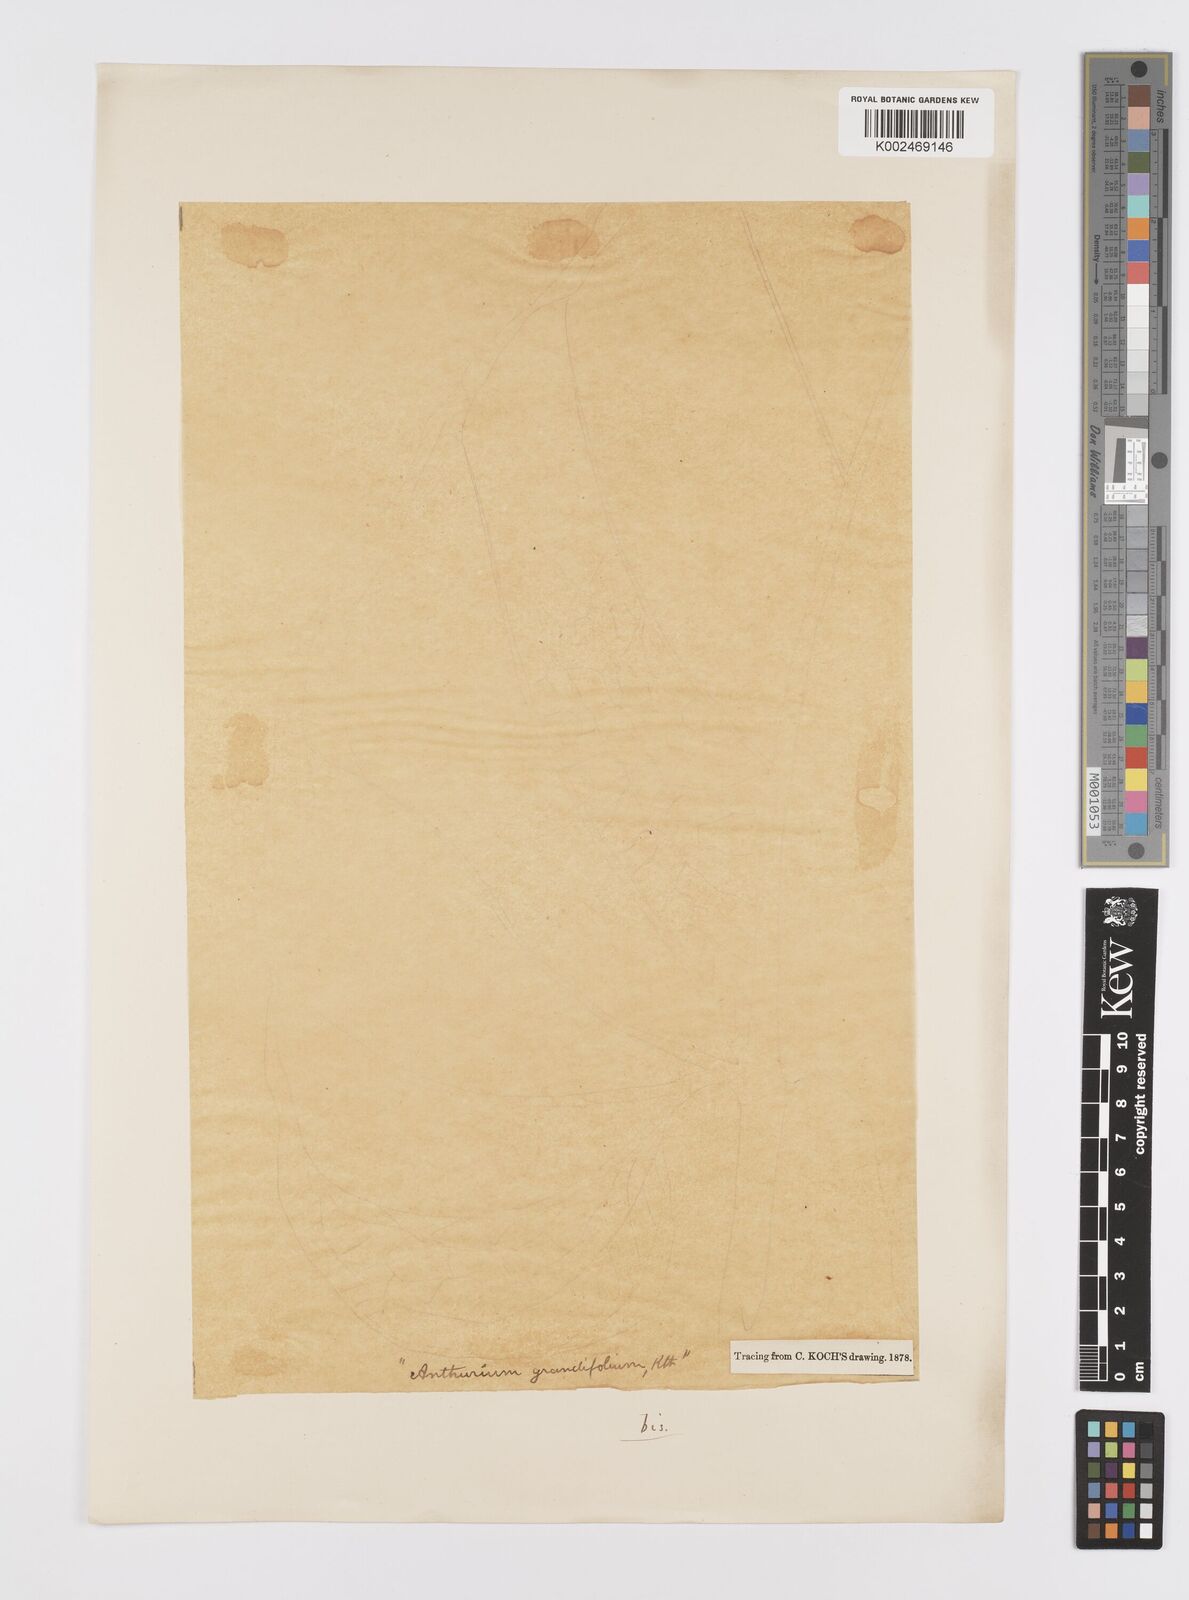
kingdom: Plantae
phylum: Tracheophyta
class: Liliopsida
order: Alismatales
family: Araceae
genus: Anthurium
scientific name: Anthurium grandifolium
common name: Monkey tail
